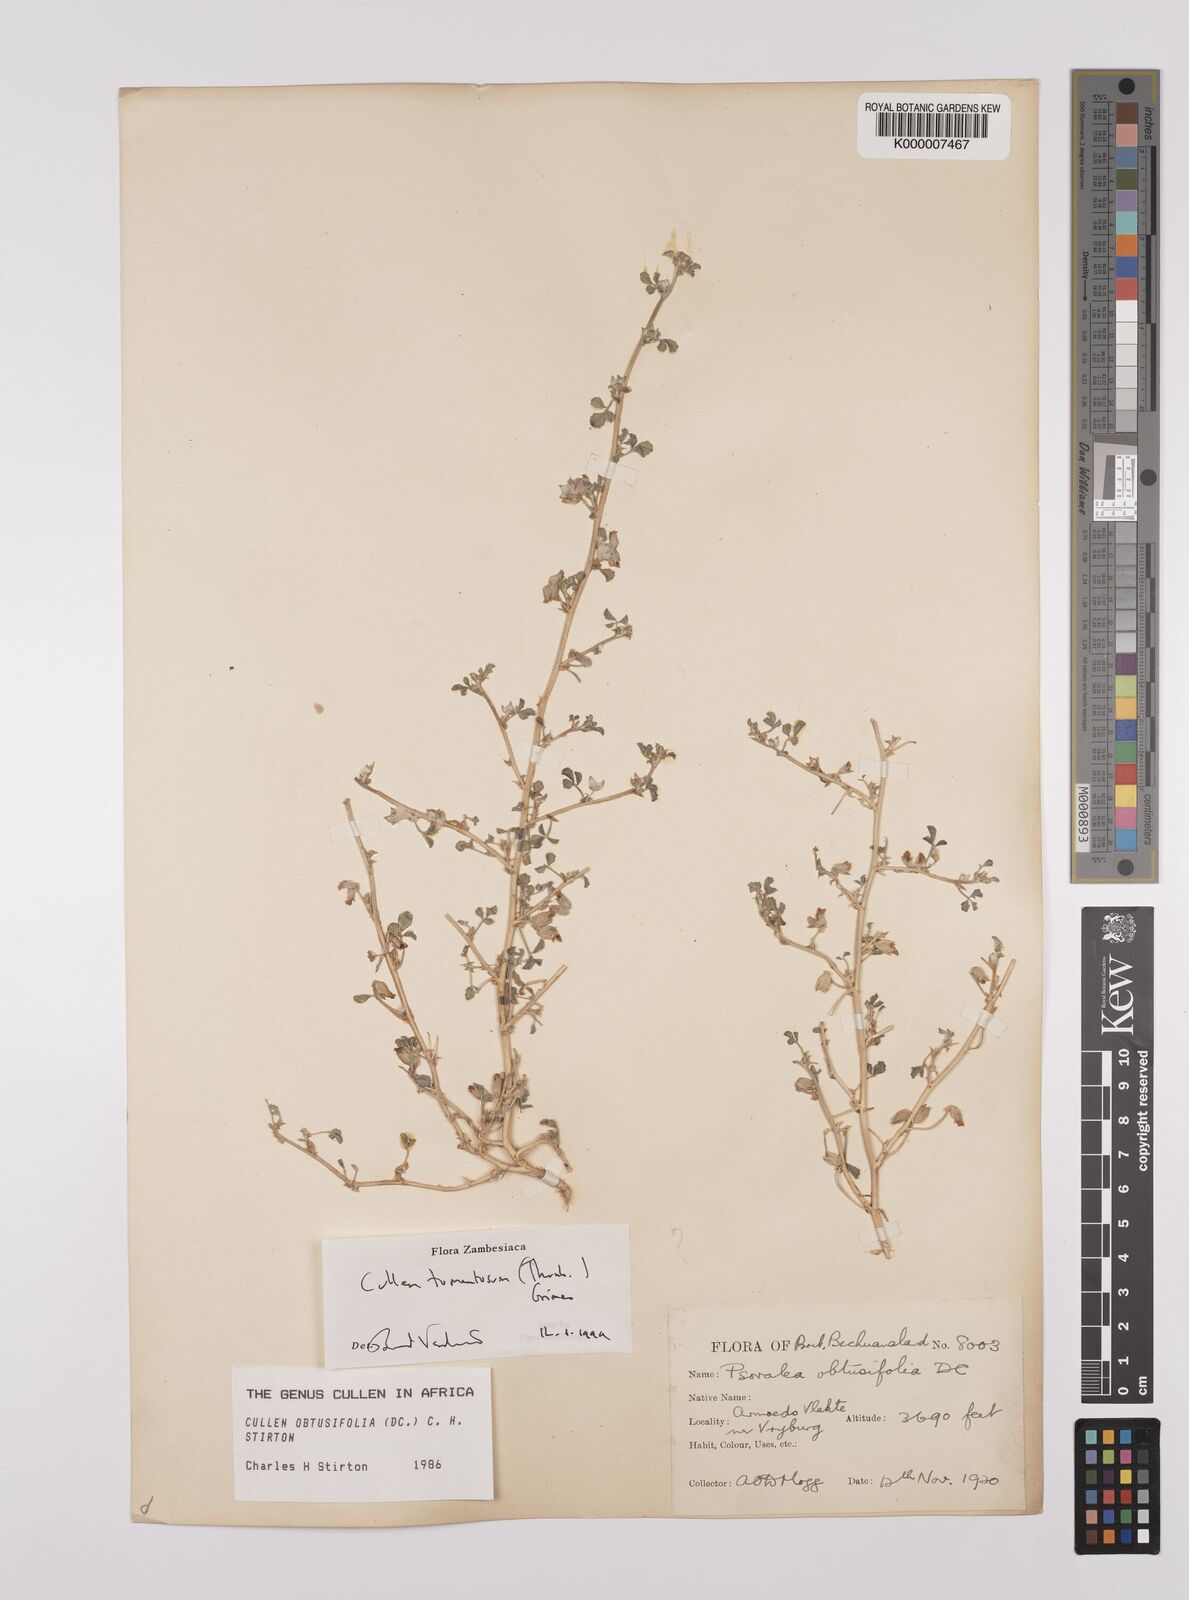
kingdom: Plantae
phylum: Tracheophyta
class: Magnoliopsida
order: Fabales
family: Fabaceae
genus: Cullen
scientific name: Cullen tomentosum
